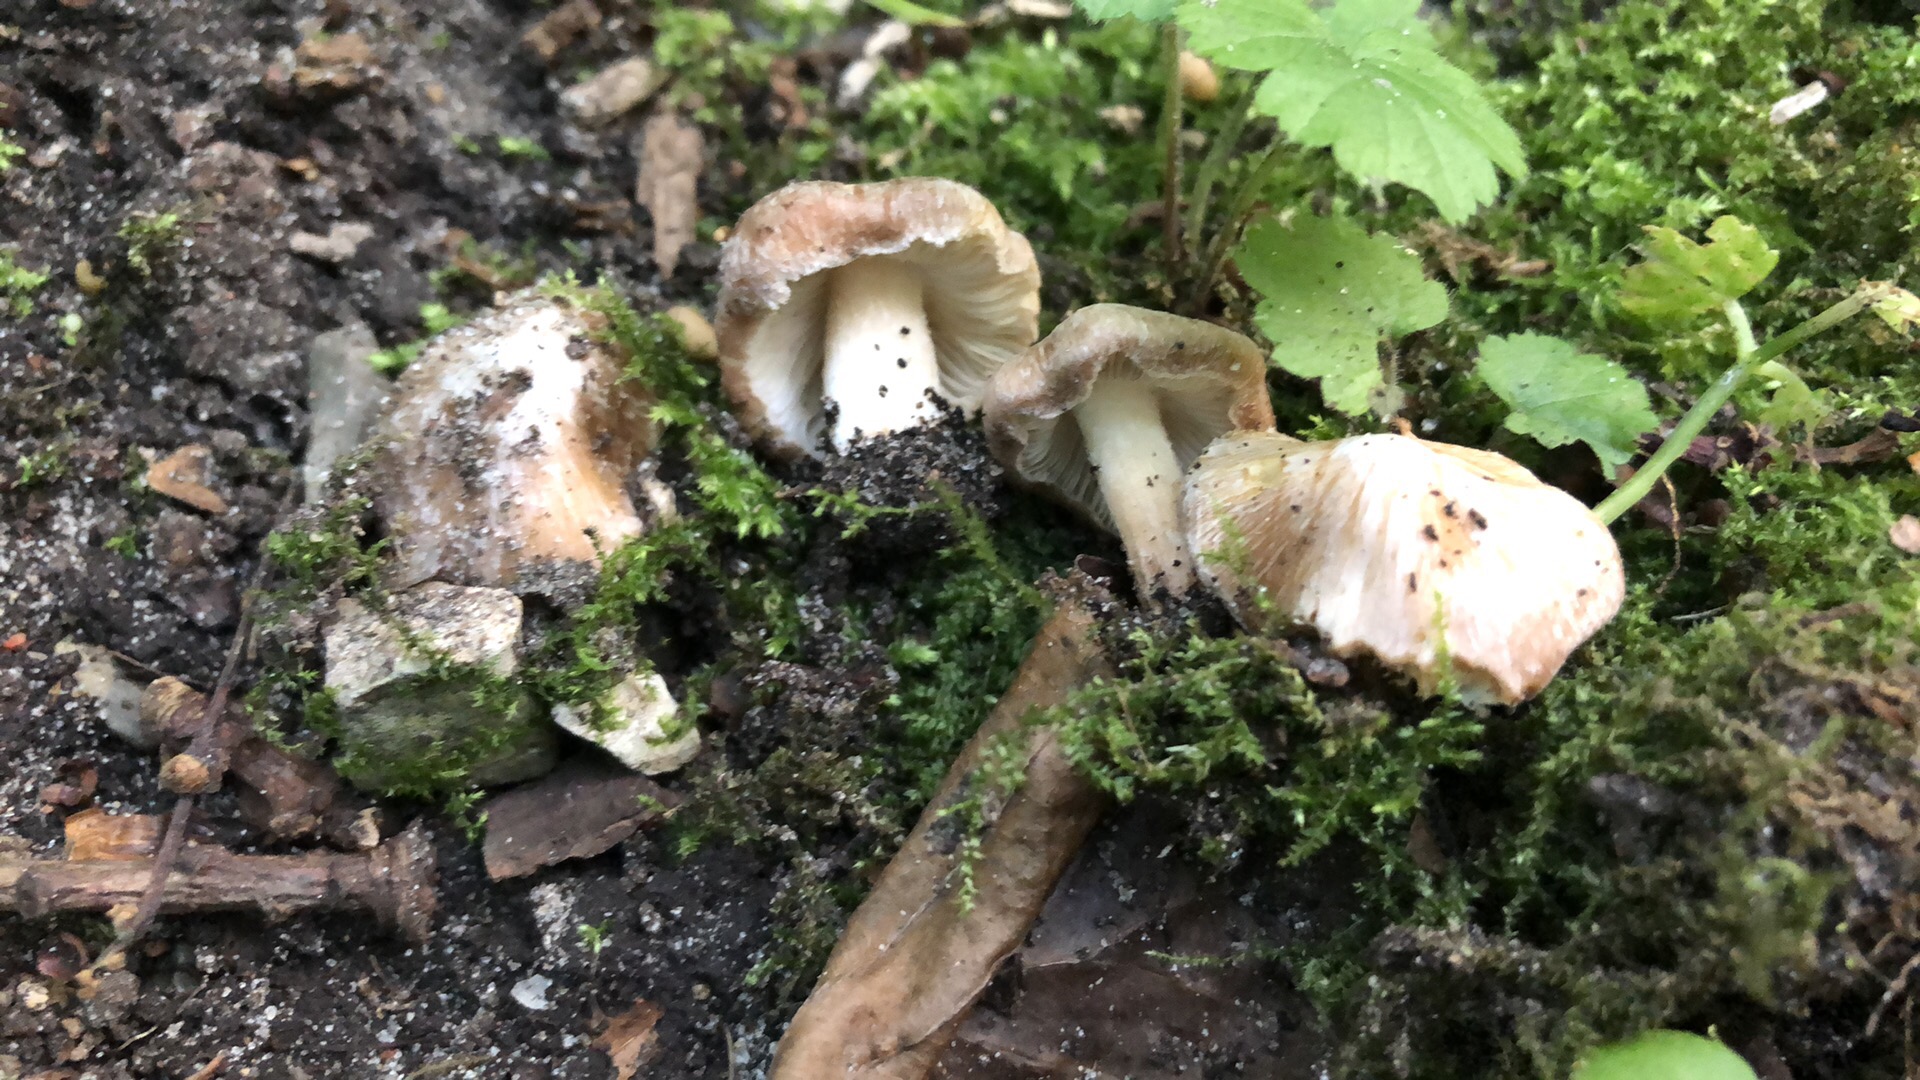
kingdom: Fungi
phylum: Basidiomycota
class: Agaricomycetes
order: Agaricales
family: Inocybaceae
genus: Inosperma
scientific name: Inosperma
